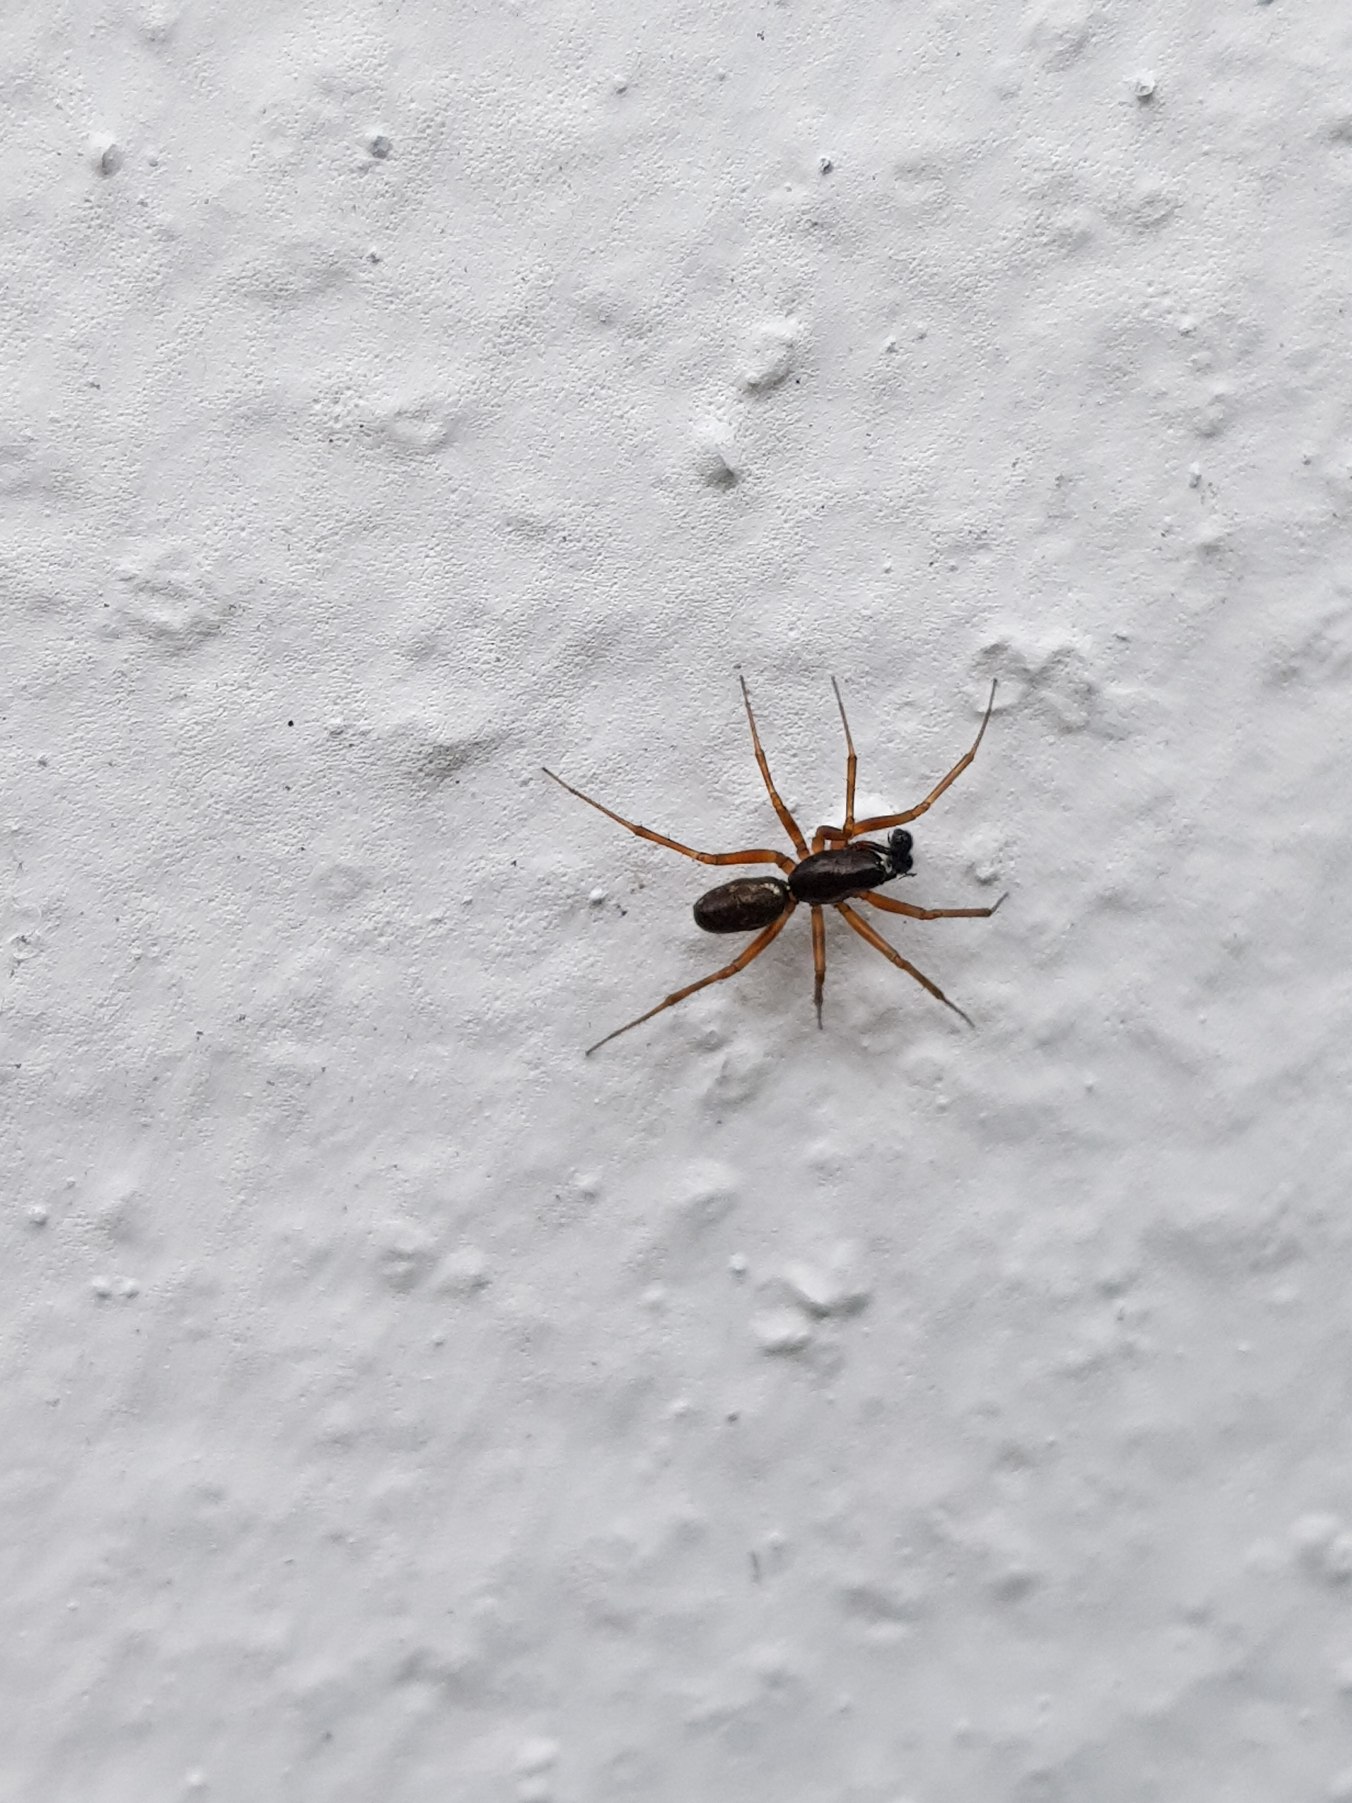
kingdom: Animalia
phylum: Arthropoda
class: Arachnida
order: Araneae
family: Linyphiidae
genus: Neriene
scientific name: Neriene clathrata
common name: Kratbaldakinspinder
